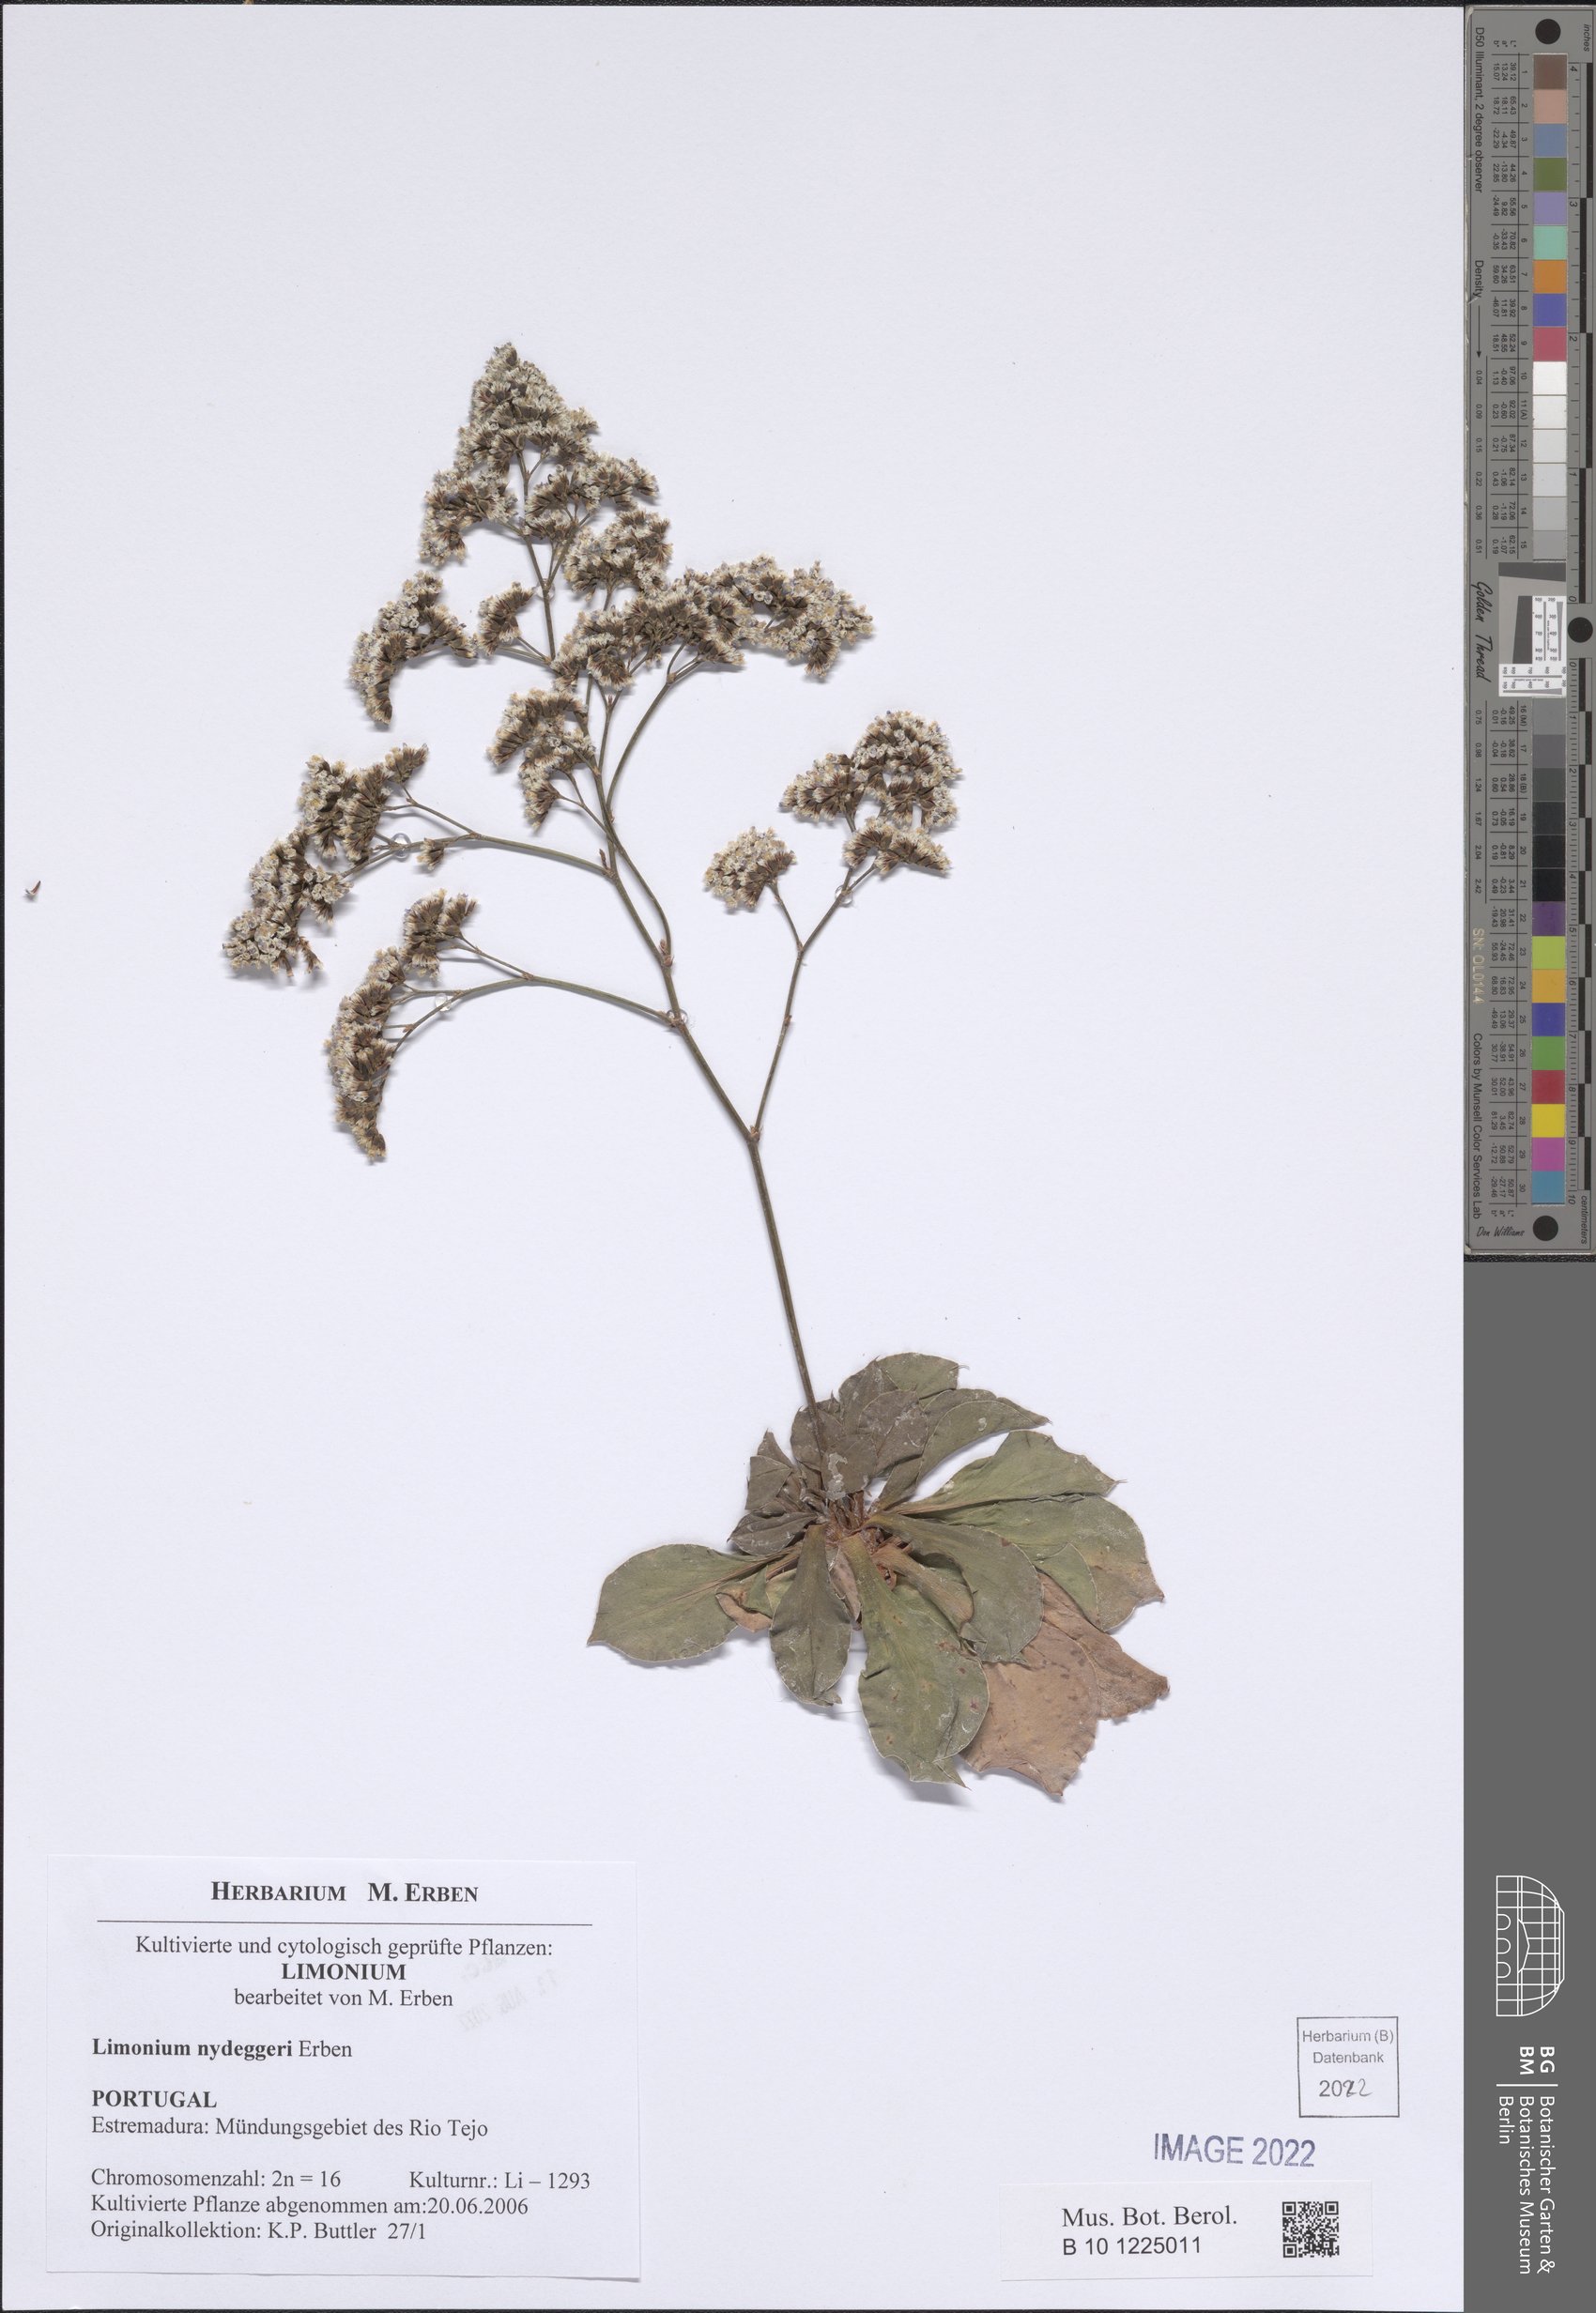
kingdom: Plantae
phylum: Tracheophyta
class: Magnoliopsida
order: Caryophyllales
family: Plumbaginaceae
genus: Limonium
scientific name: Limonium auriculifolium
